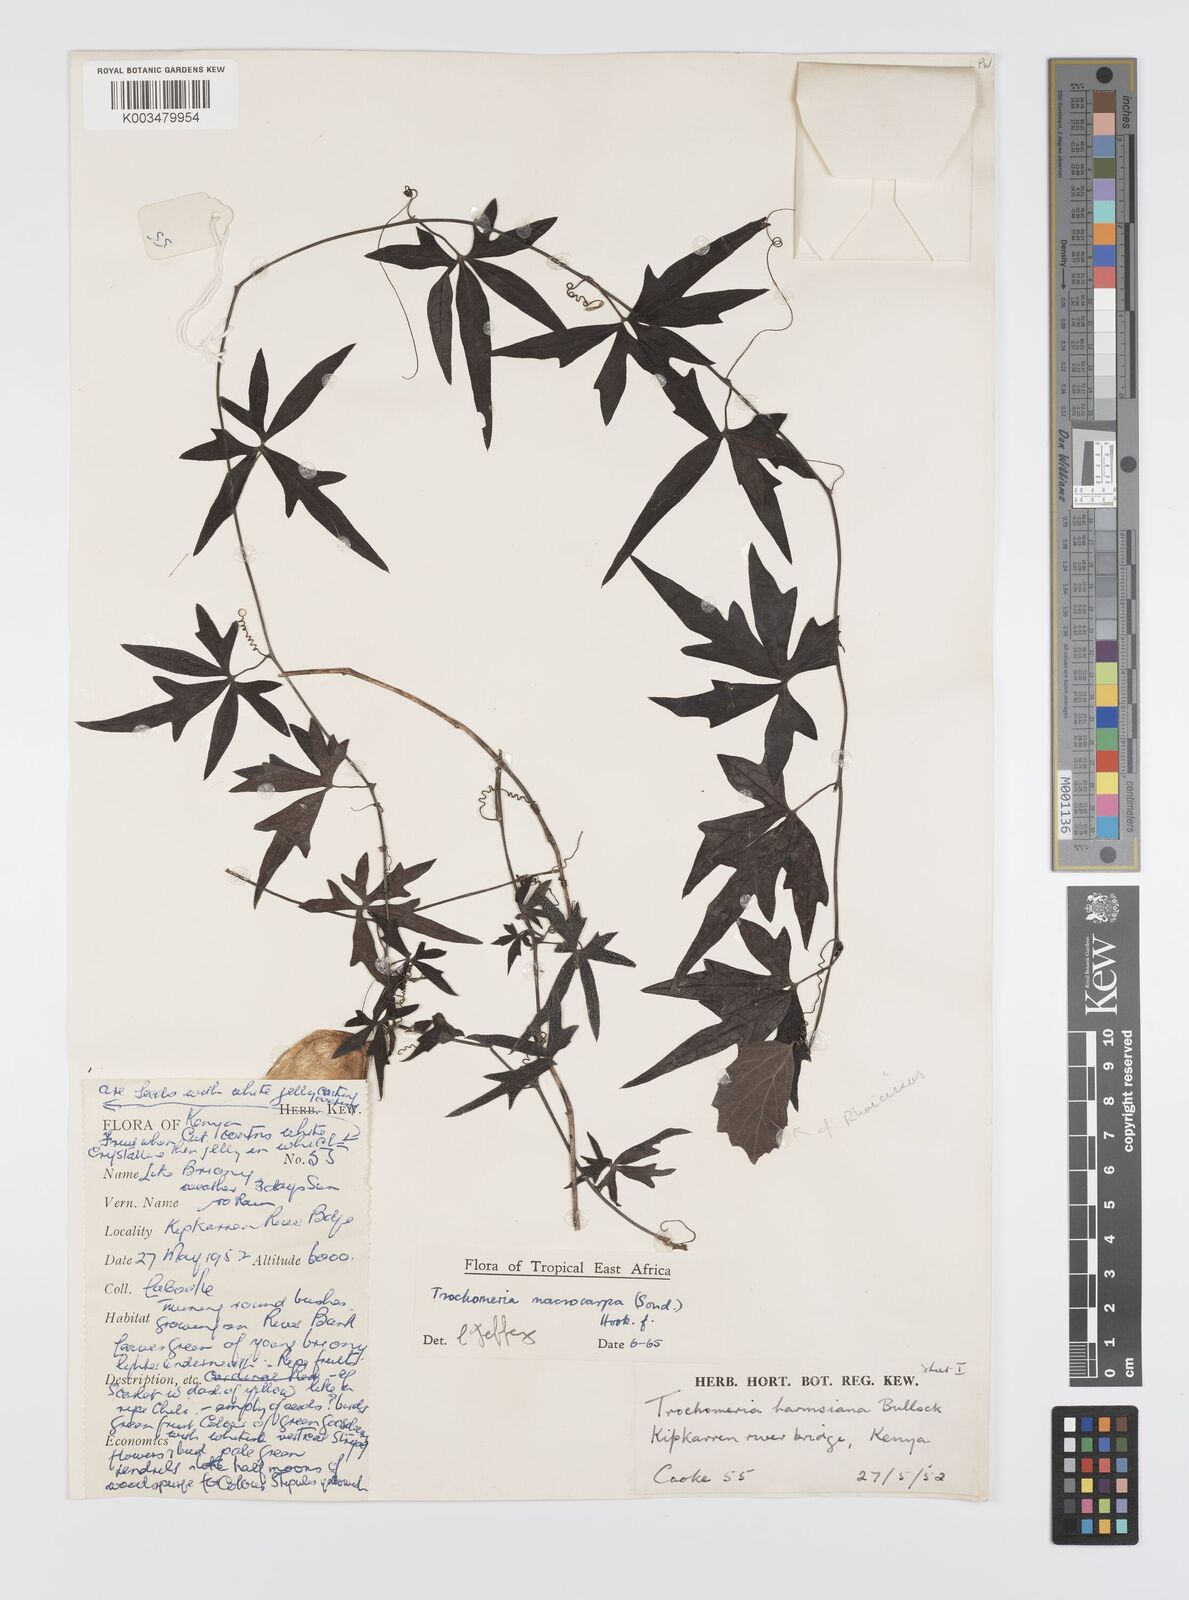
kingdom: Plantae
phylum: Tracheophyta
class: Magnoliopsida
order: Cucurbitales
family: Cucurbitaceae
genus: Trochomeria
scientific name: Trochomeria macrocarpa
